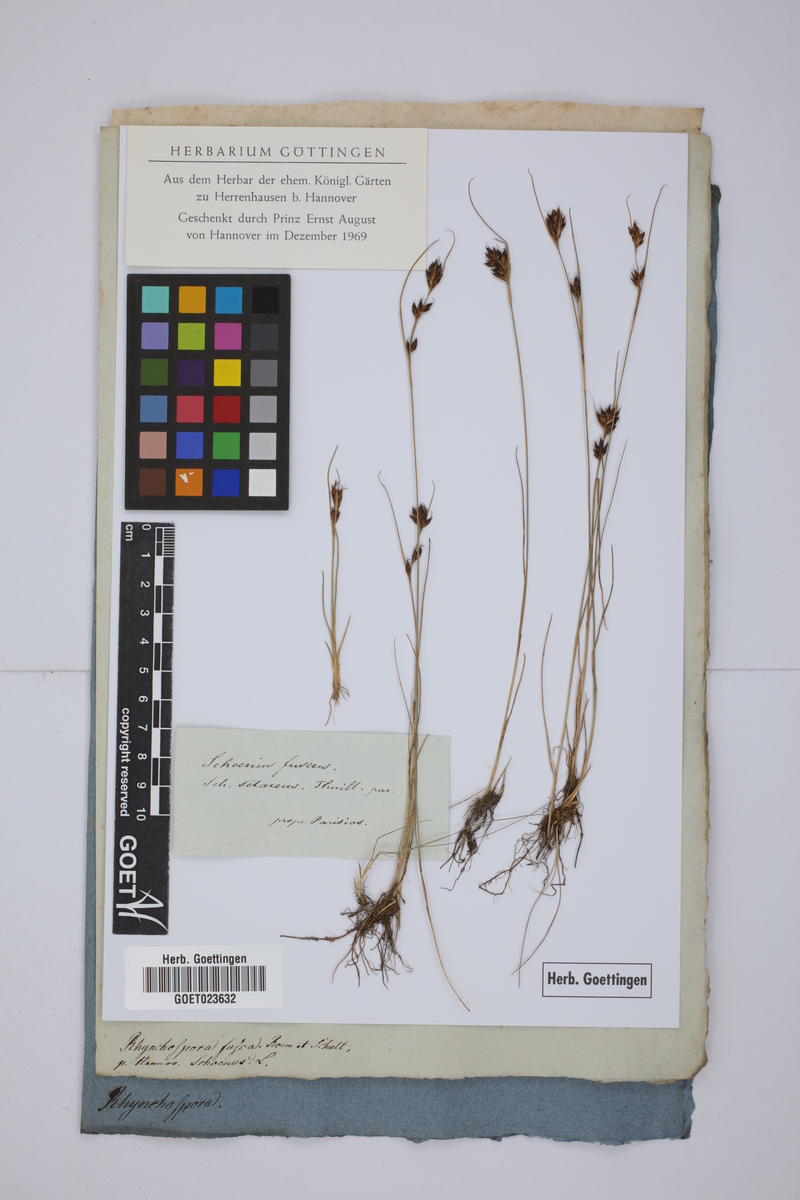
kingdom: Plantae
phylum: Tracheophyta
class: Liliopsida
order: Poales
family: Cyperaceae
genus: Rhynchospora
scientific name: Rhynchospora fusca
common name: Brown beak-sedge
